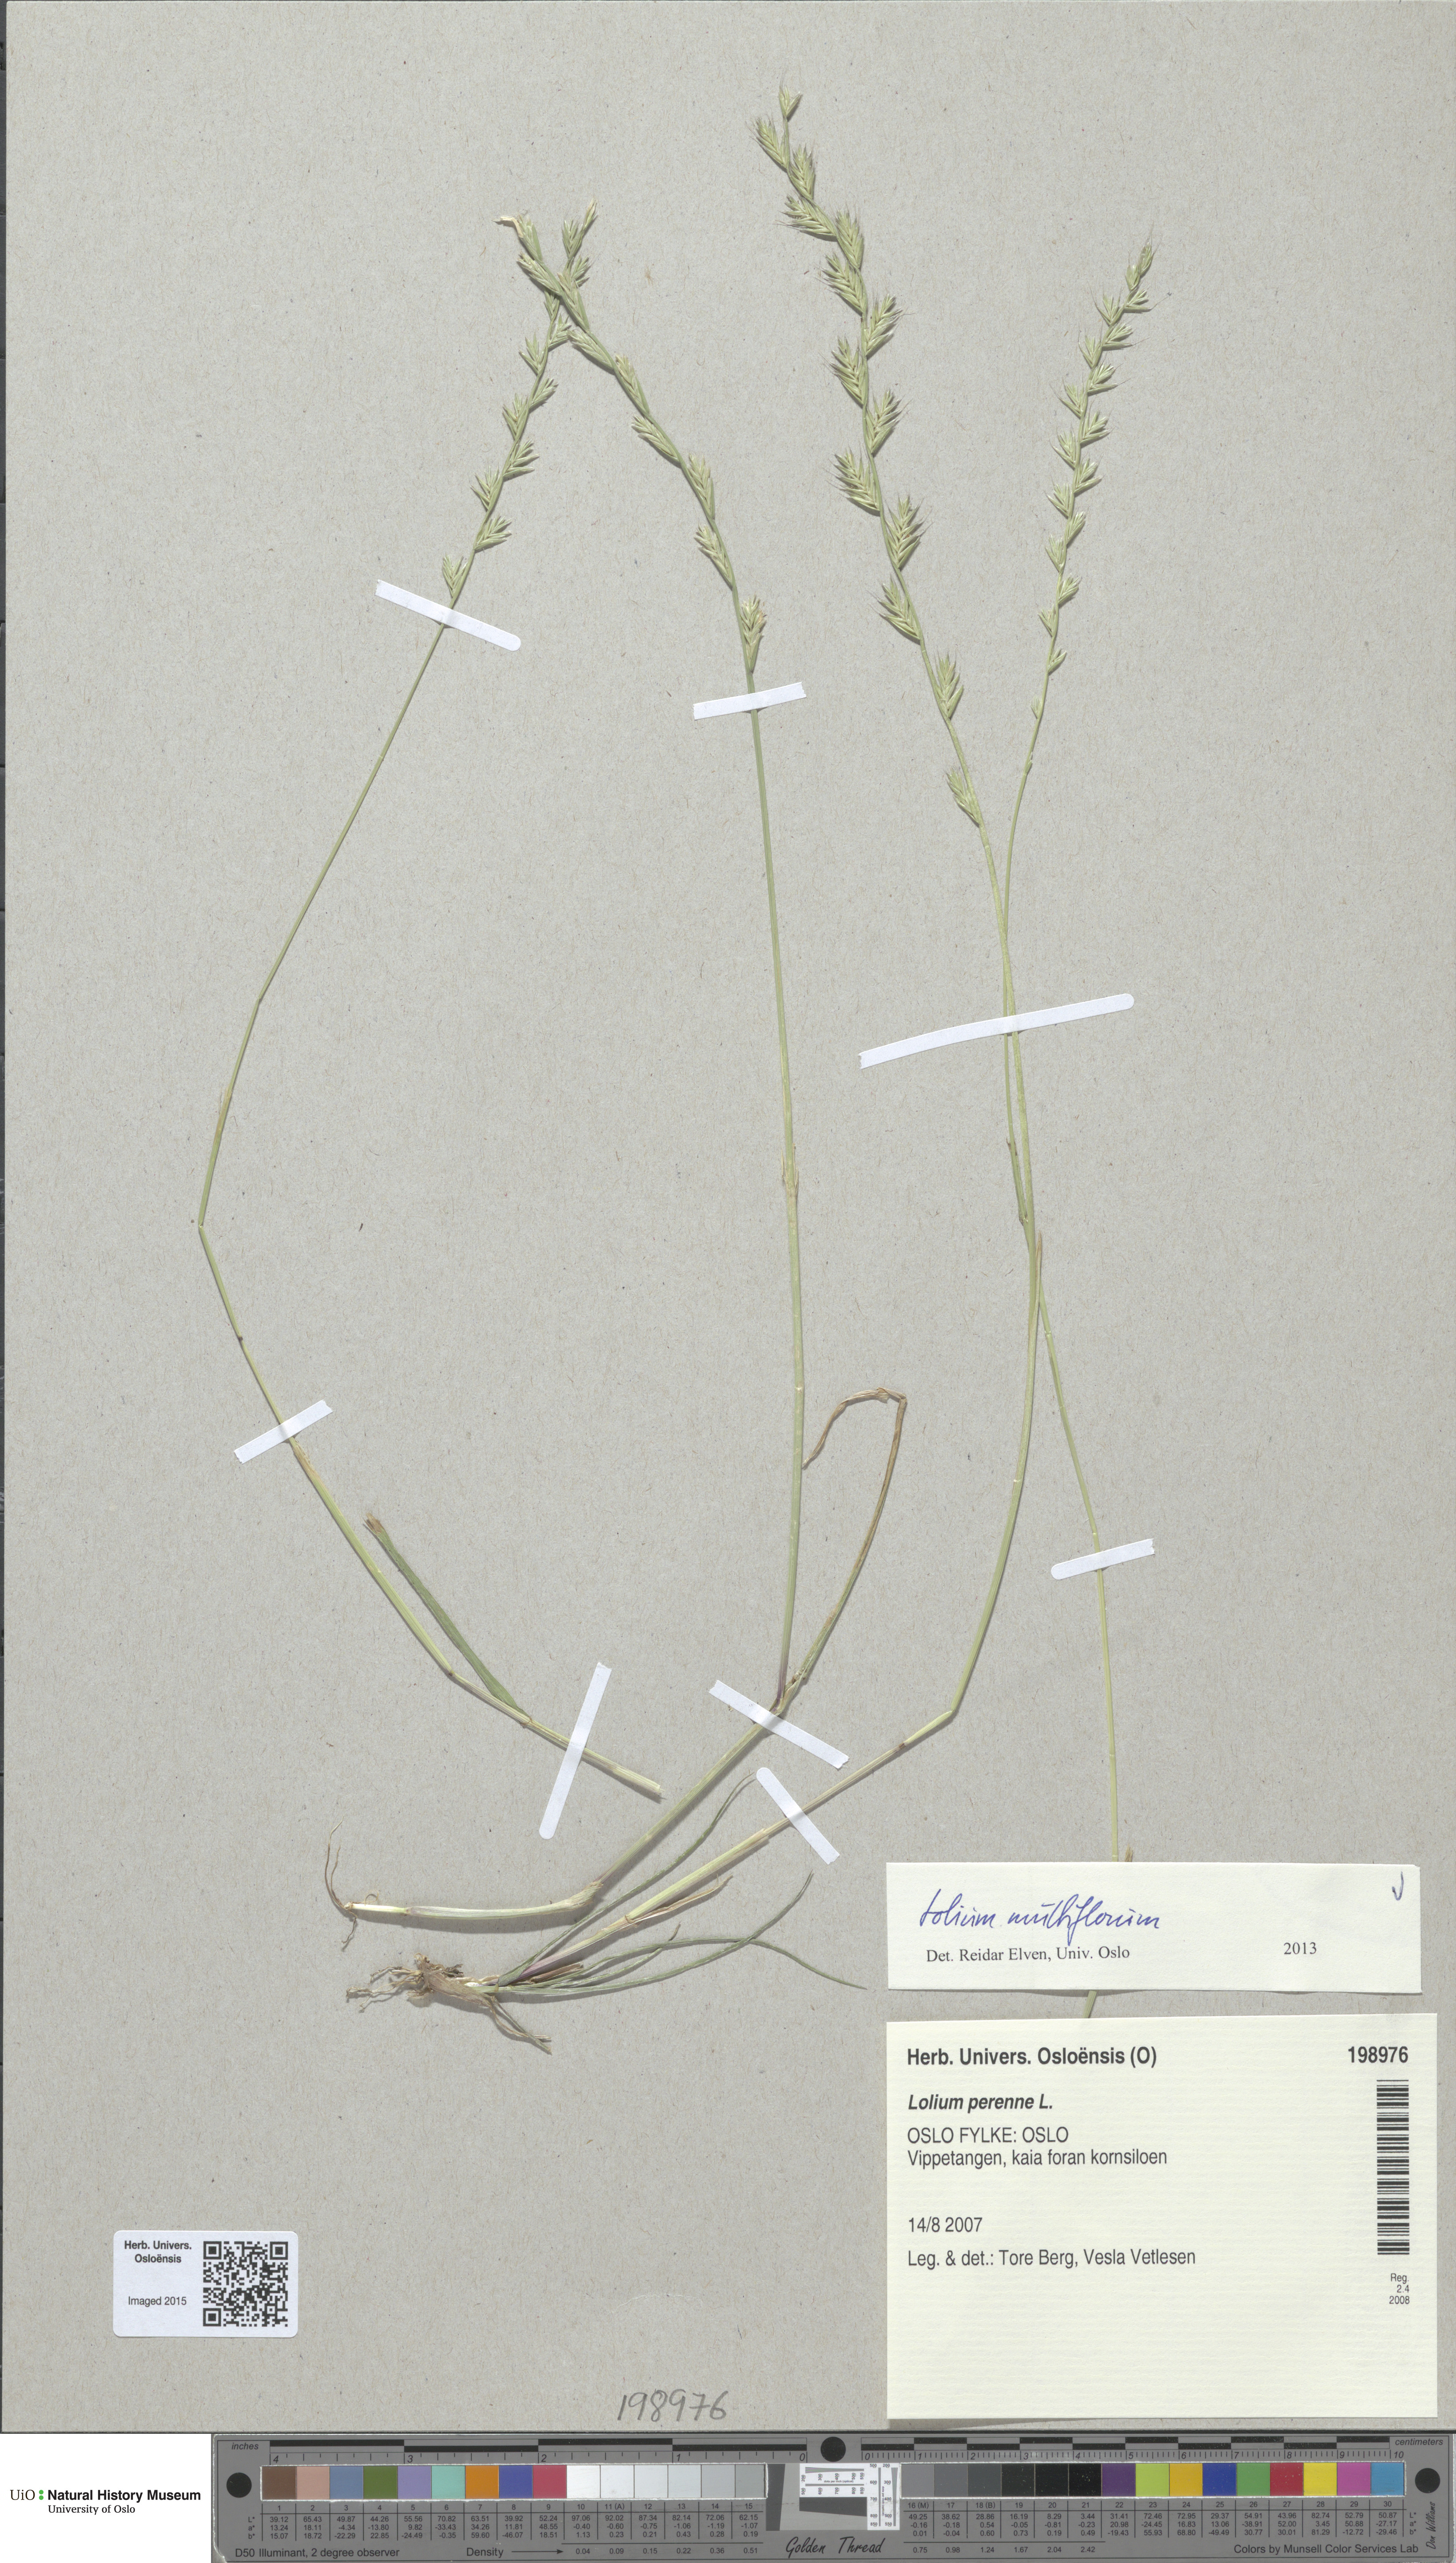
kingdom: Plantae
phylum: Tracheophyta
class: Liliopsida
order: Poales
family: Poaceae
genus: Lolium
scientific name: Lolium multiflorum
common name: Annual ryegrass
